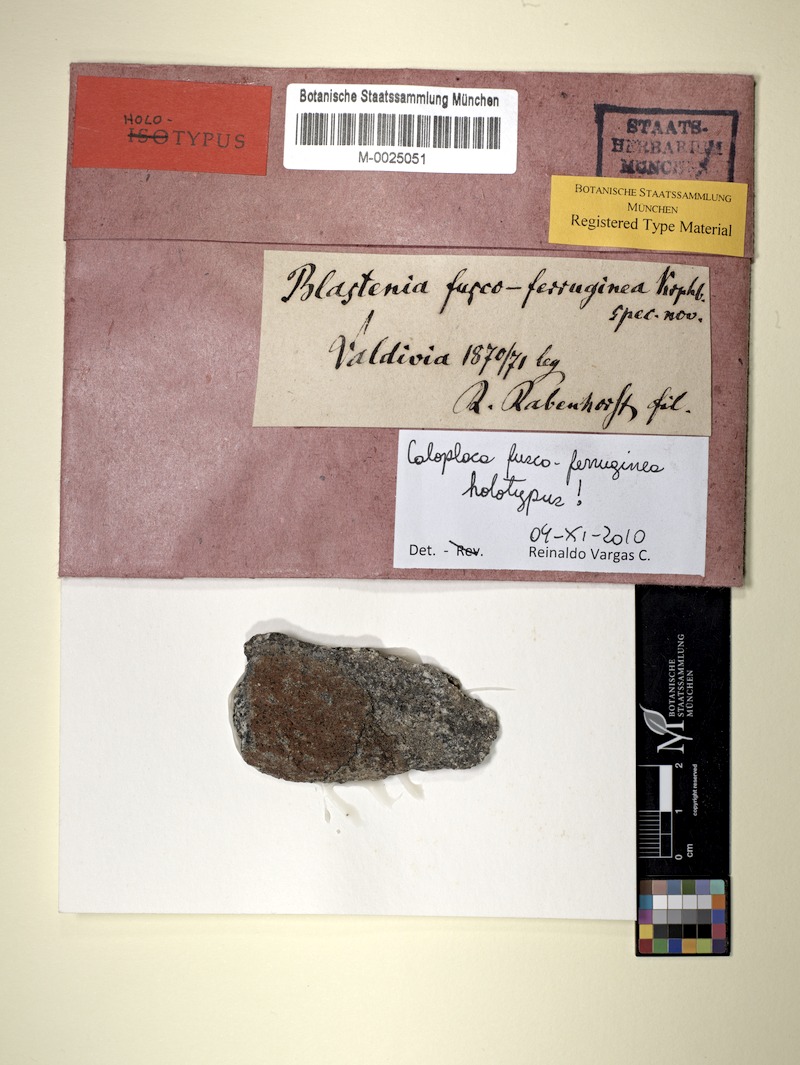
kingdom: Fungi
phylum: Ascomycota
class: Lecanoromycetes
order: Teloschistales
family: Teloschistaceae
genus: Caloplaca
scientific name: Caloplaca
